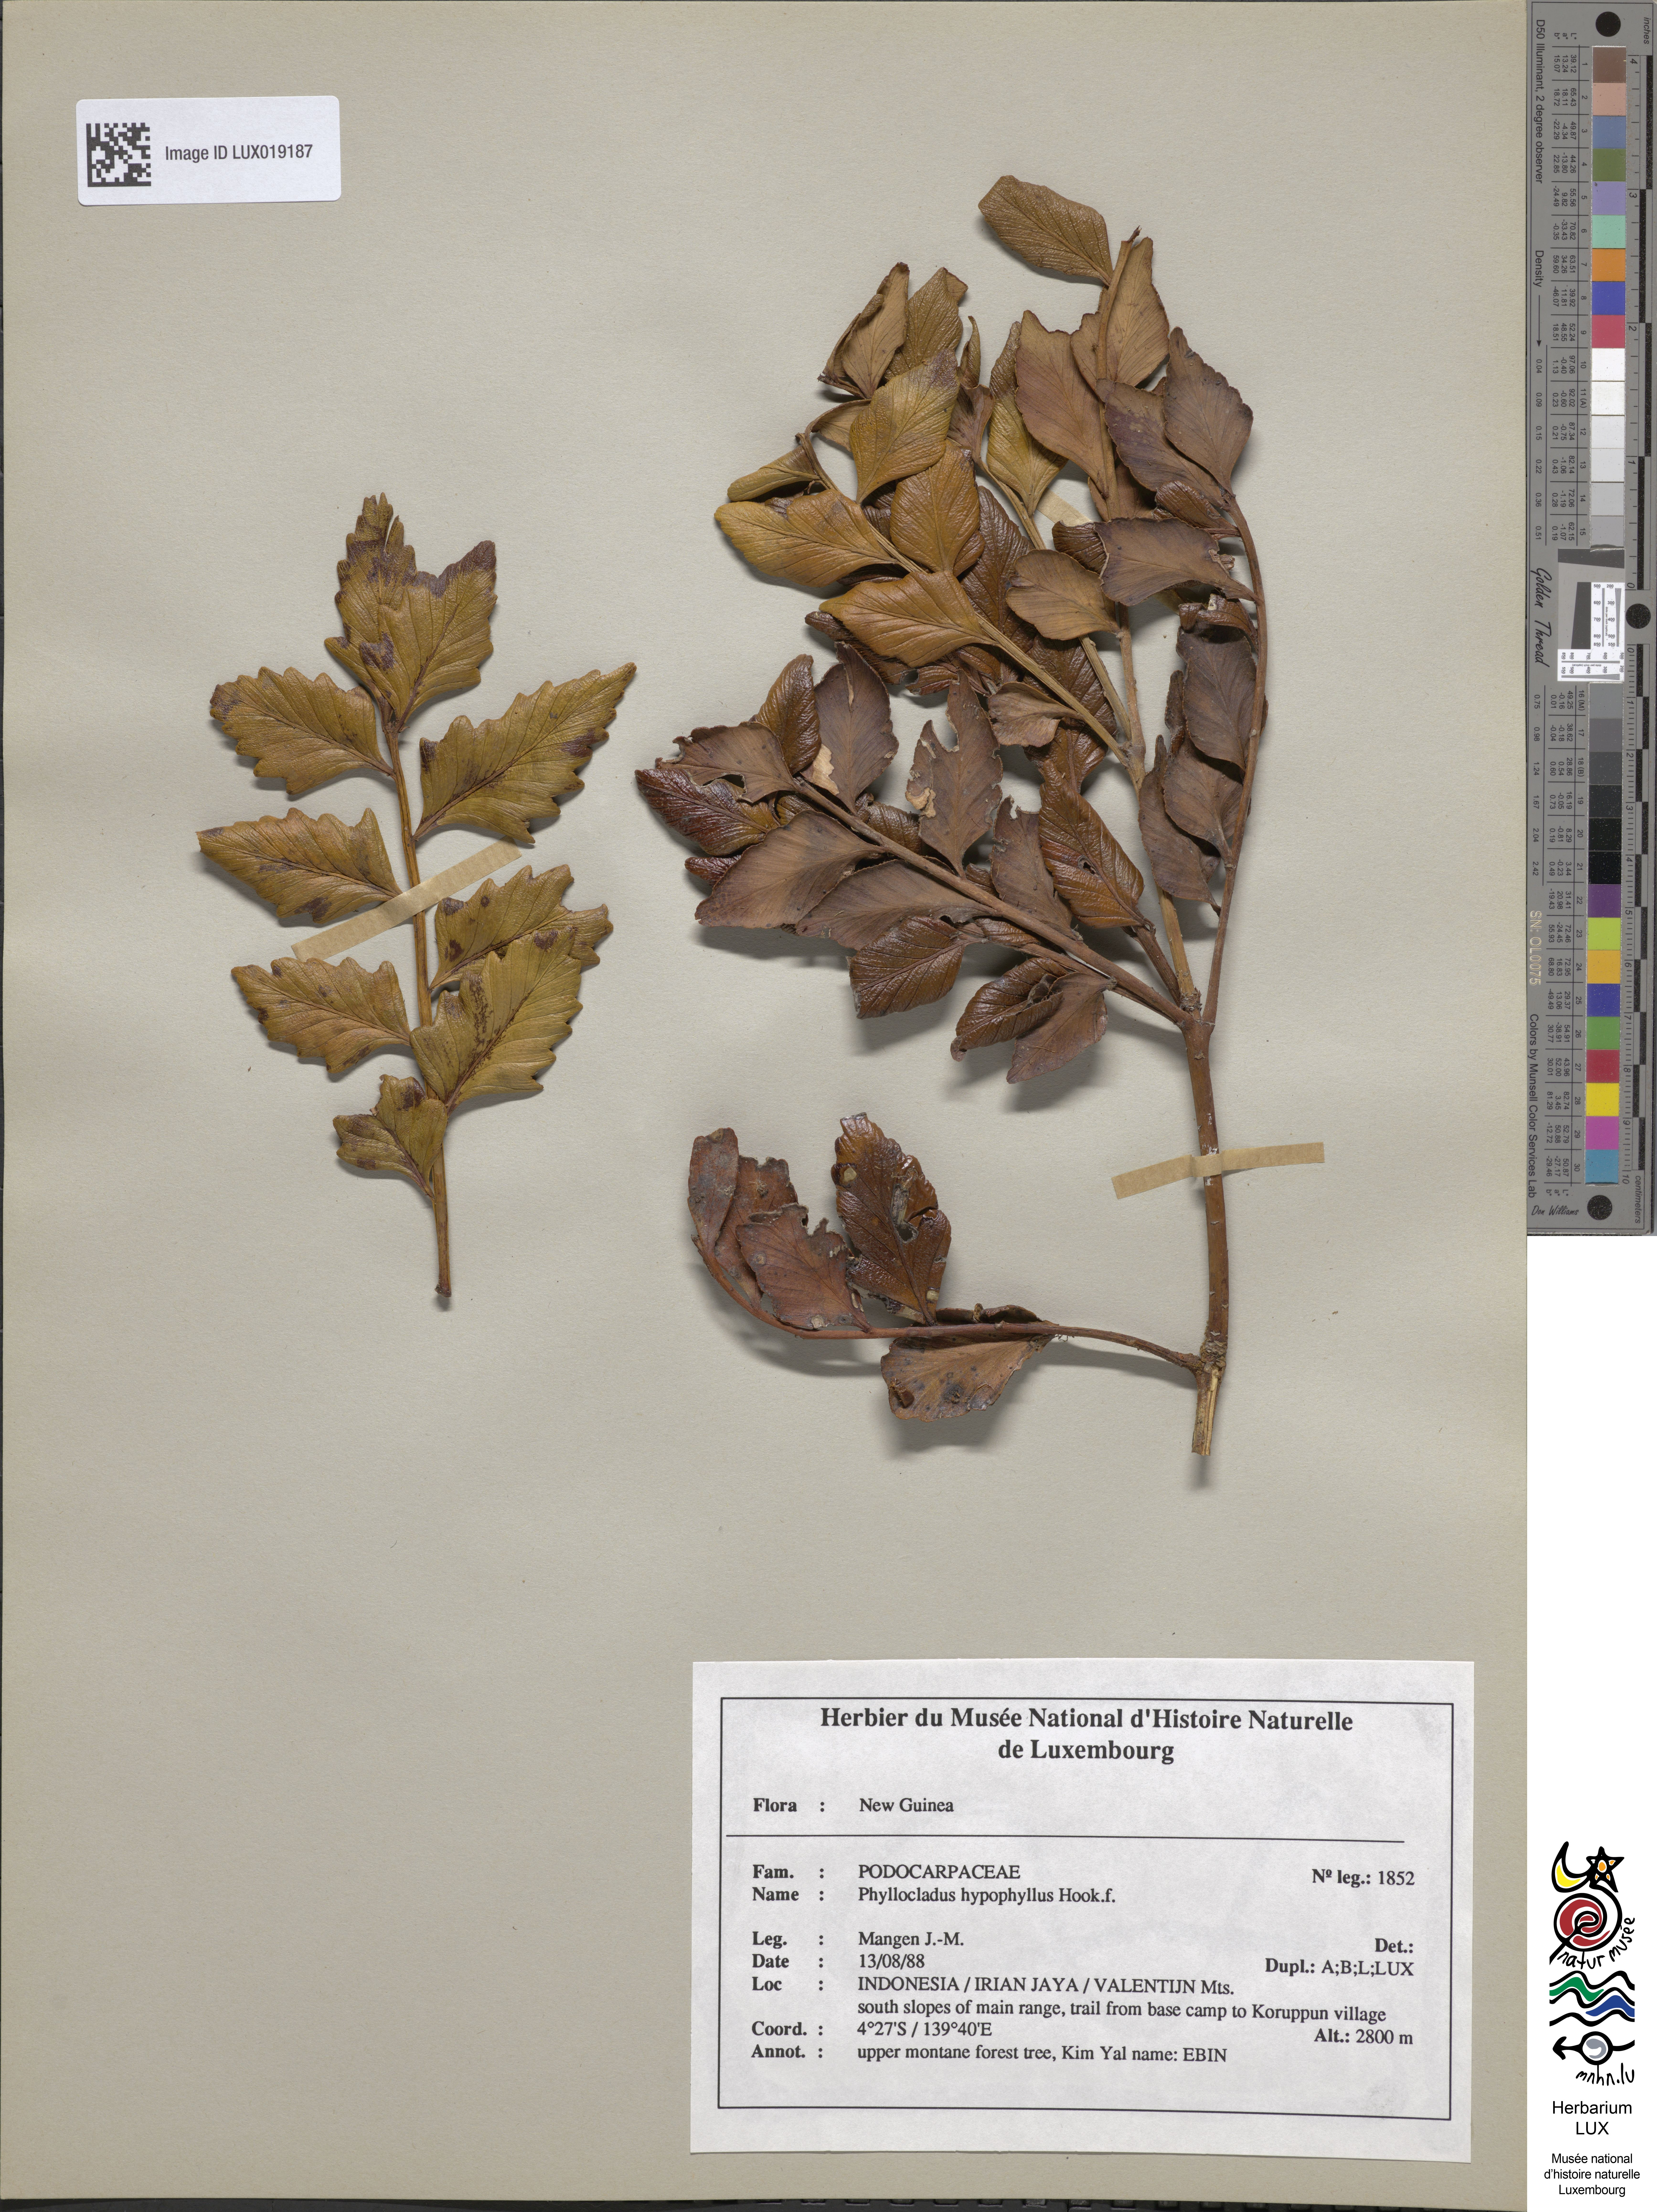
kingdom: Plantae
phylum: Tracheophyta
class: Pinopsida
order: Pinales
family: Phyllocladaceae
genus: Phyllocladus
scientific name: Phyllocladus hypophyllus
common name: Celery pine
